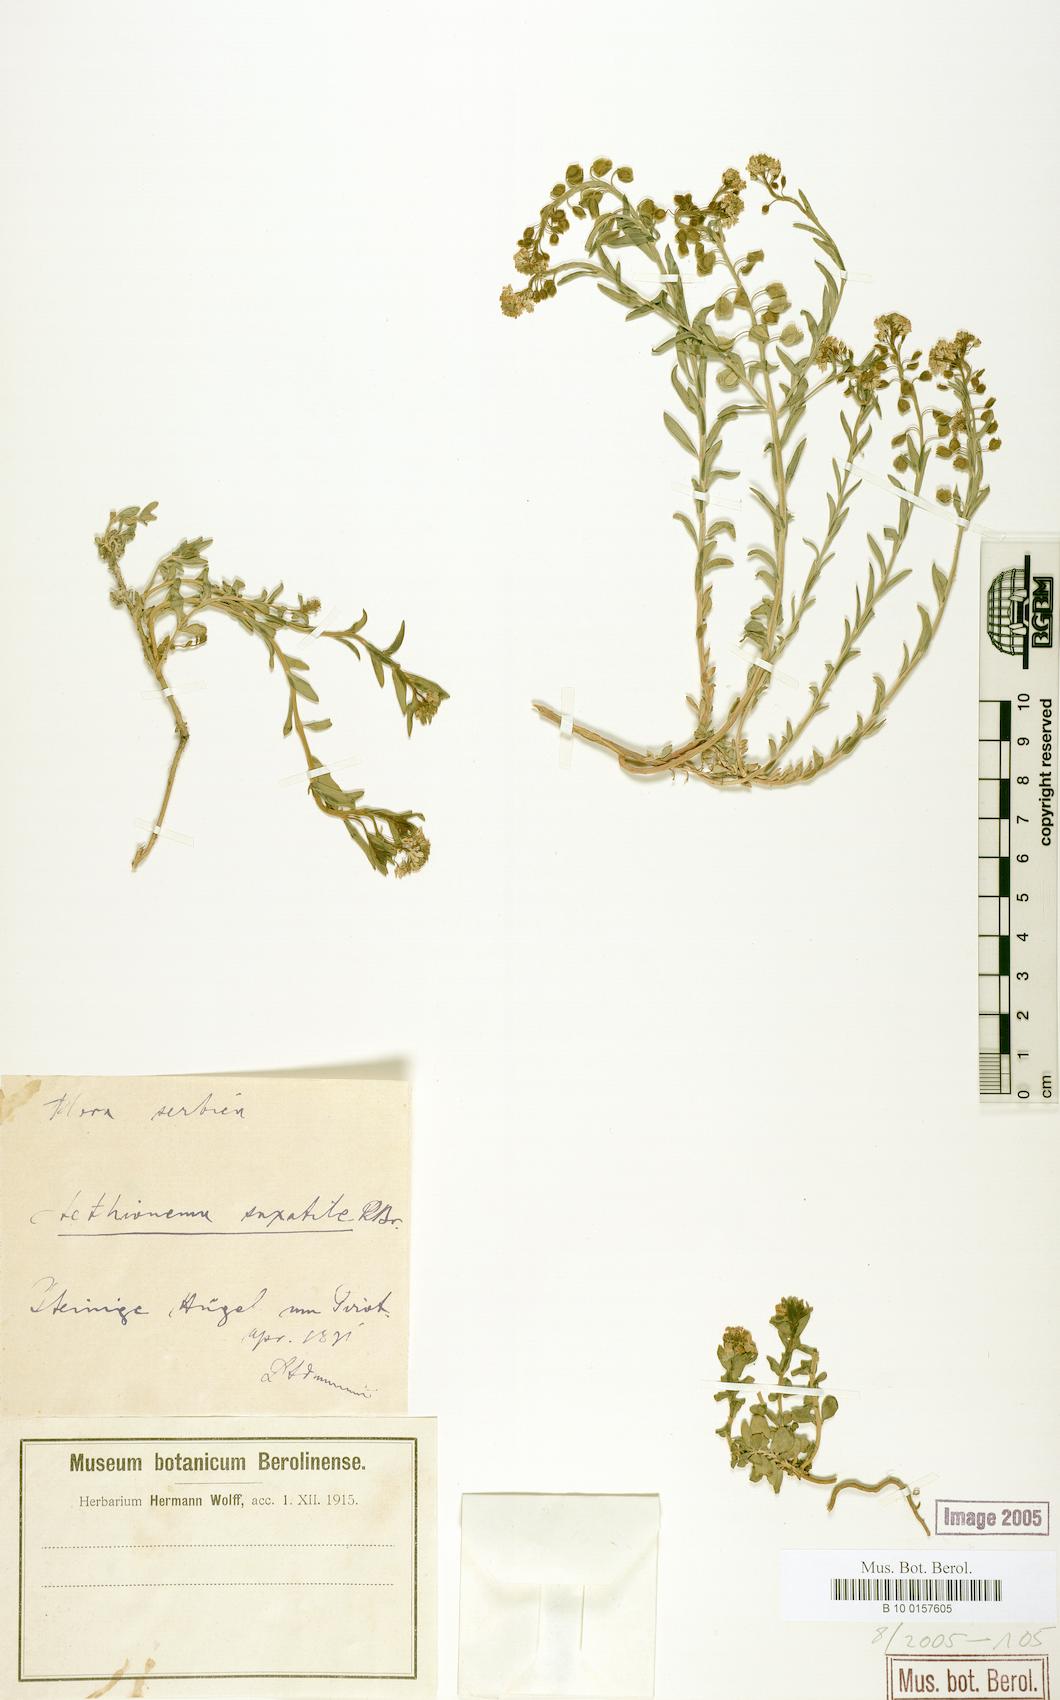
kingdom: Plantae
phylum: Tracheophyta
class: Magnoliopsida
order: Brassicales
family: Brassicaceae
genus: Aethionema
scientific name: Aethionema saxatile
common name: Burnt candytuft
